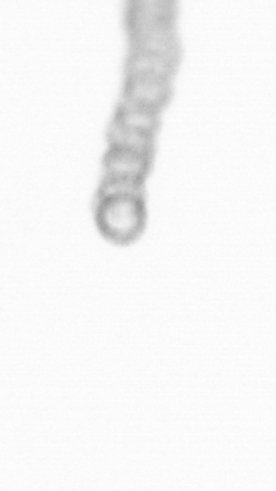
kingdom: Chromista
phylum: Ochrophyta
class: Bacillariophyceae
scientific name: Bacillariophyceae
